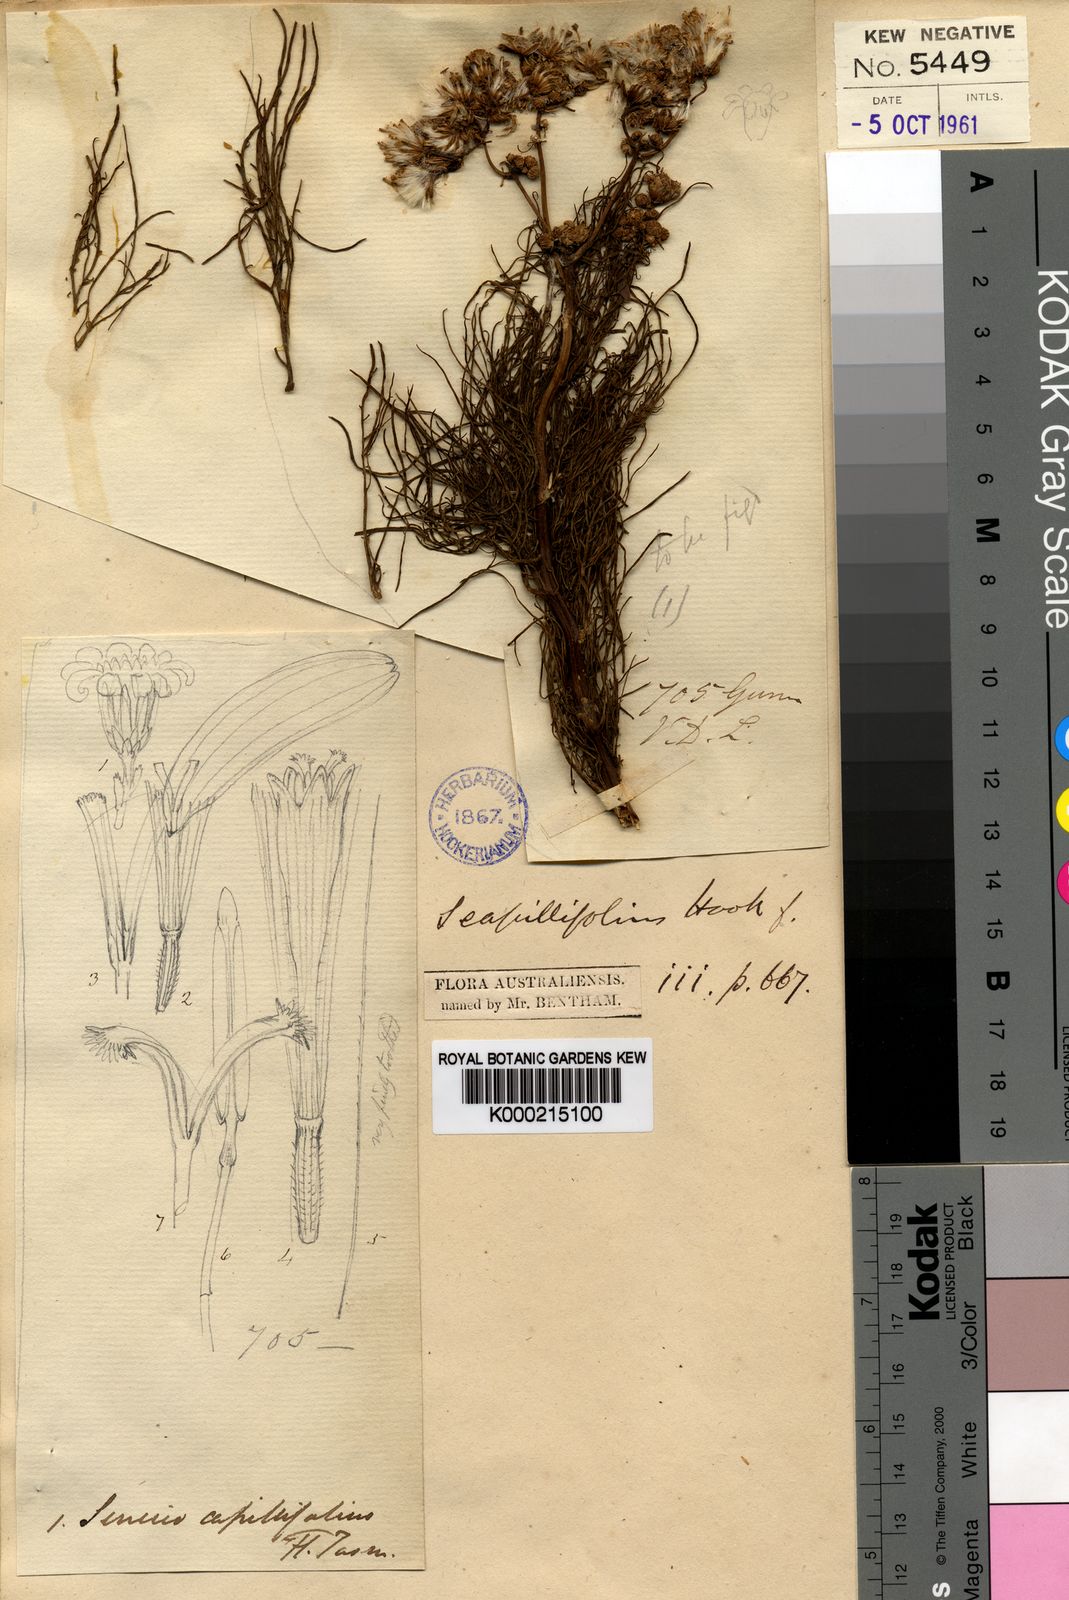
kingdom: Plantae
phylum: Tracheophyta
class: Magnoliopsida
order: Asterales
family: Asteraceae
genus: Senecio
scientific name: Senecio pinnatifolius
